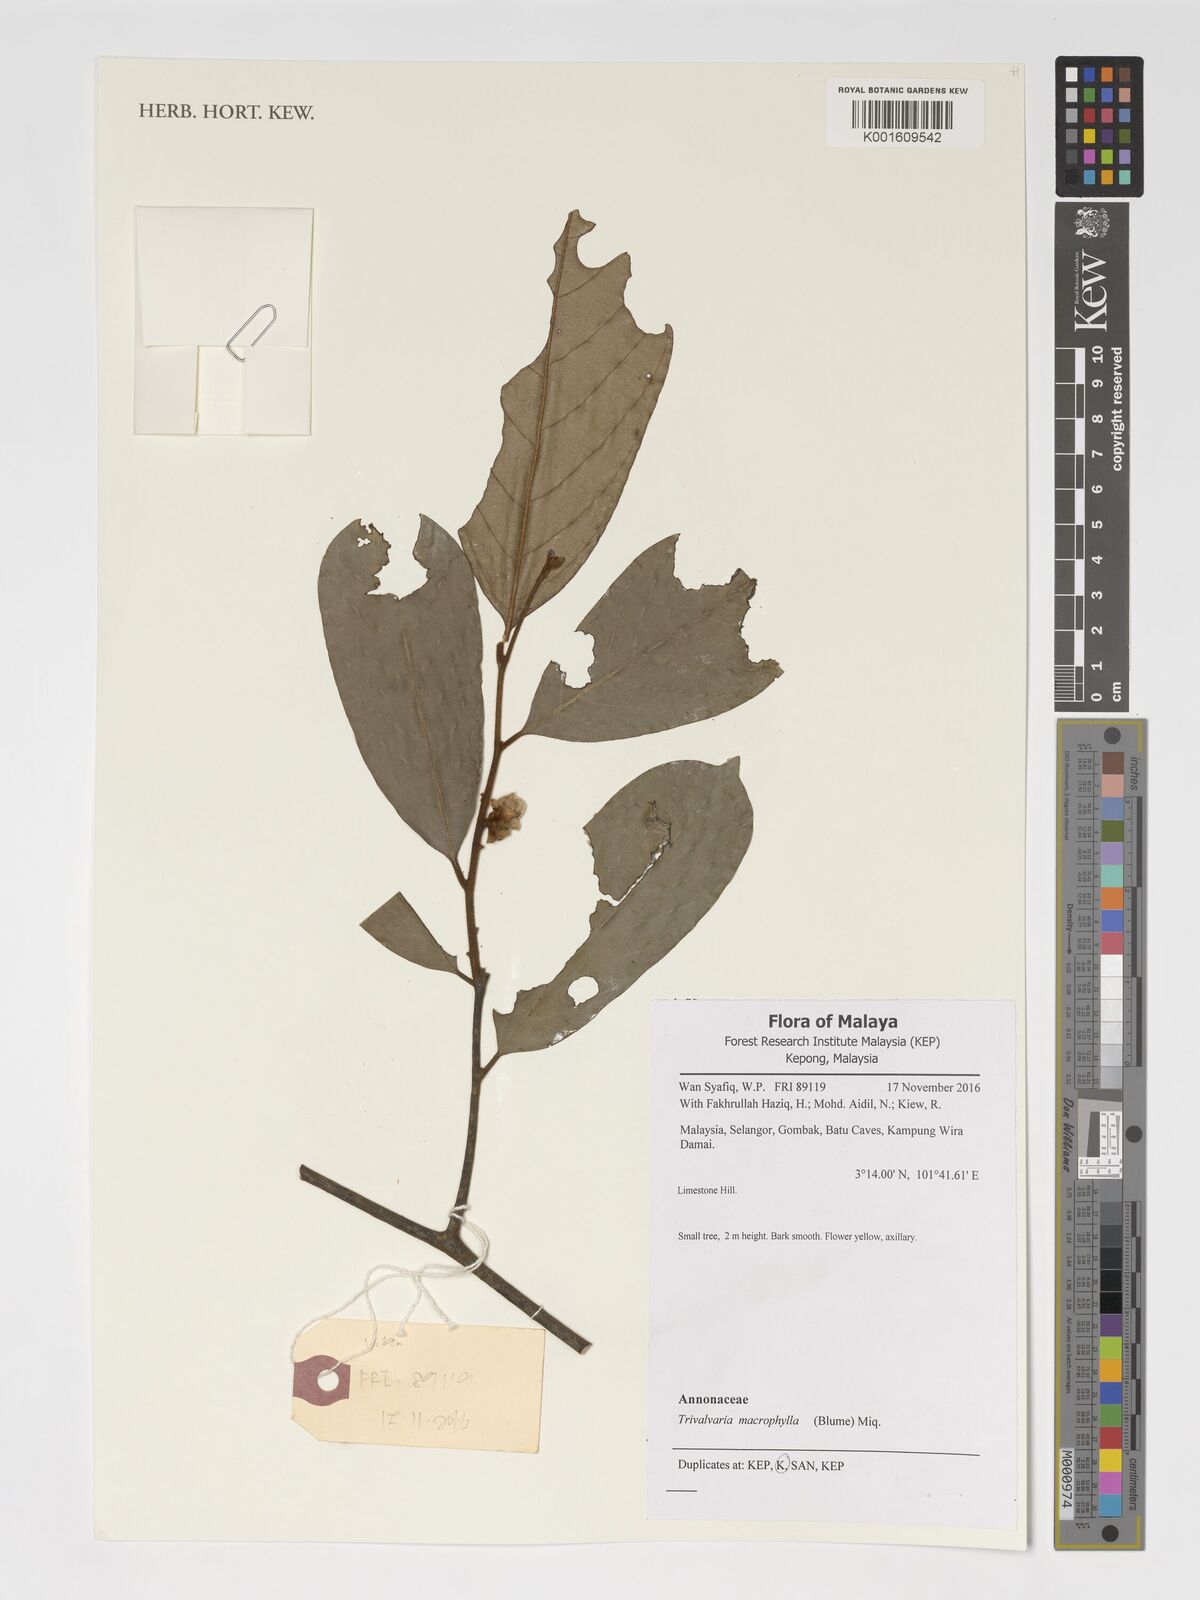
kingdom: Plantae
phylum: Tracheophyta
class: Magnoliopsida
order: Magnoliales
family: Annonaceae
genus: Trivalvaria
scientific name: Trivalvaria macrophylla
